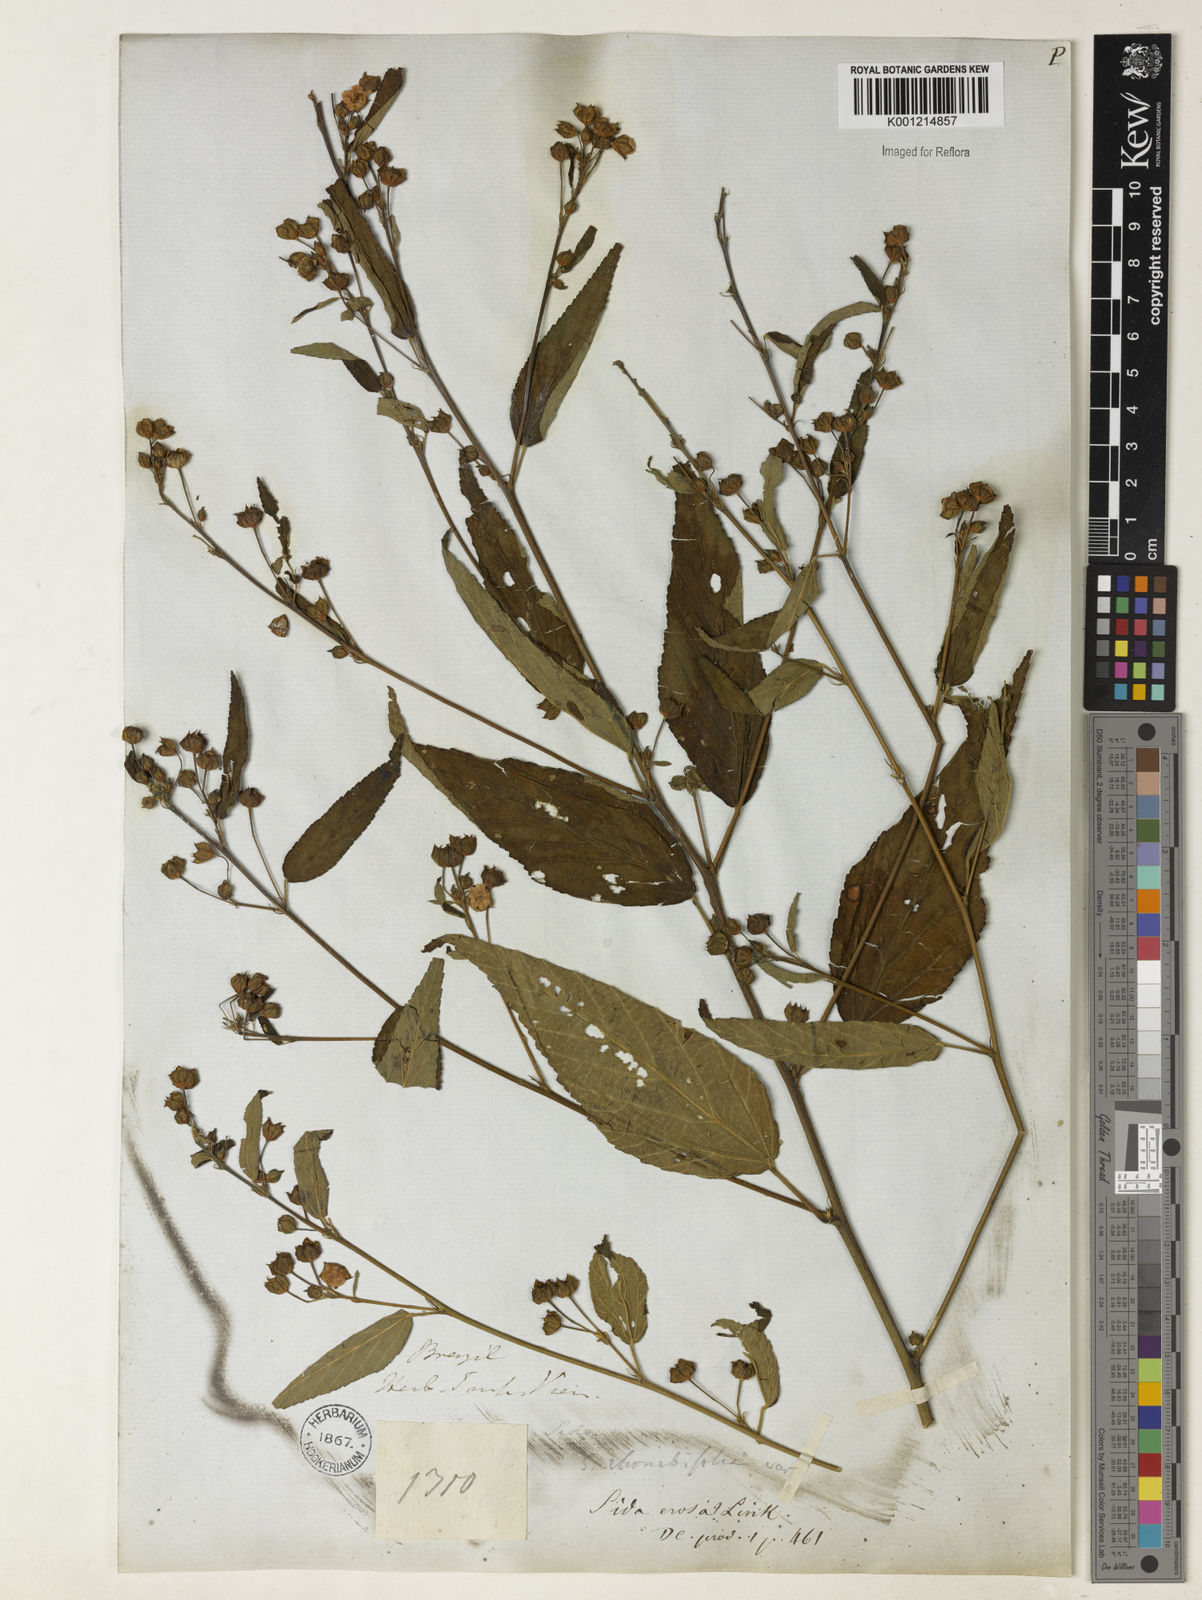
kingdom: Plantae
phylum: Tracheophyta
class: Magnoliopsida
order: Malvales
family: Malvaceae
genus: Sida
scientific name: Sida rhombifolia
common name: Queensland-hemp
